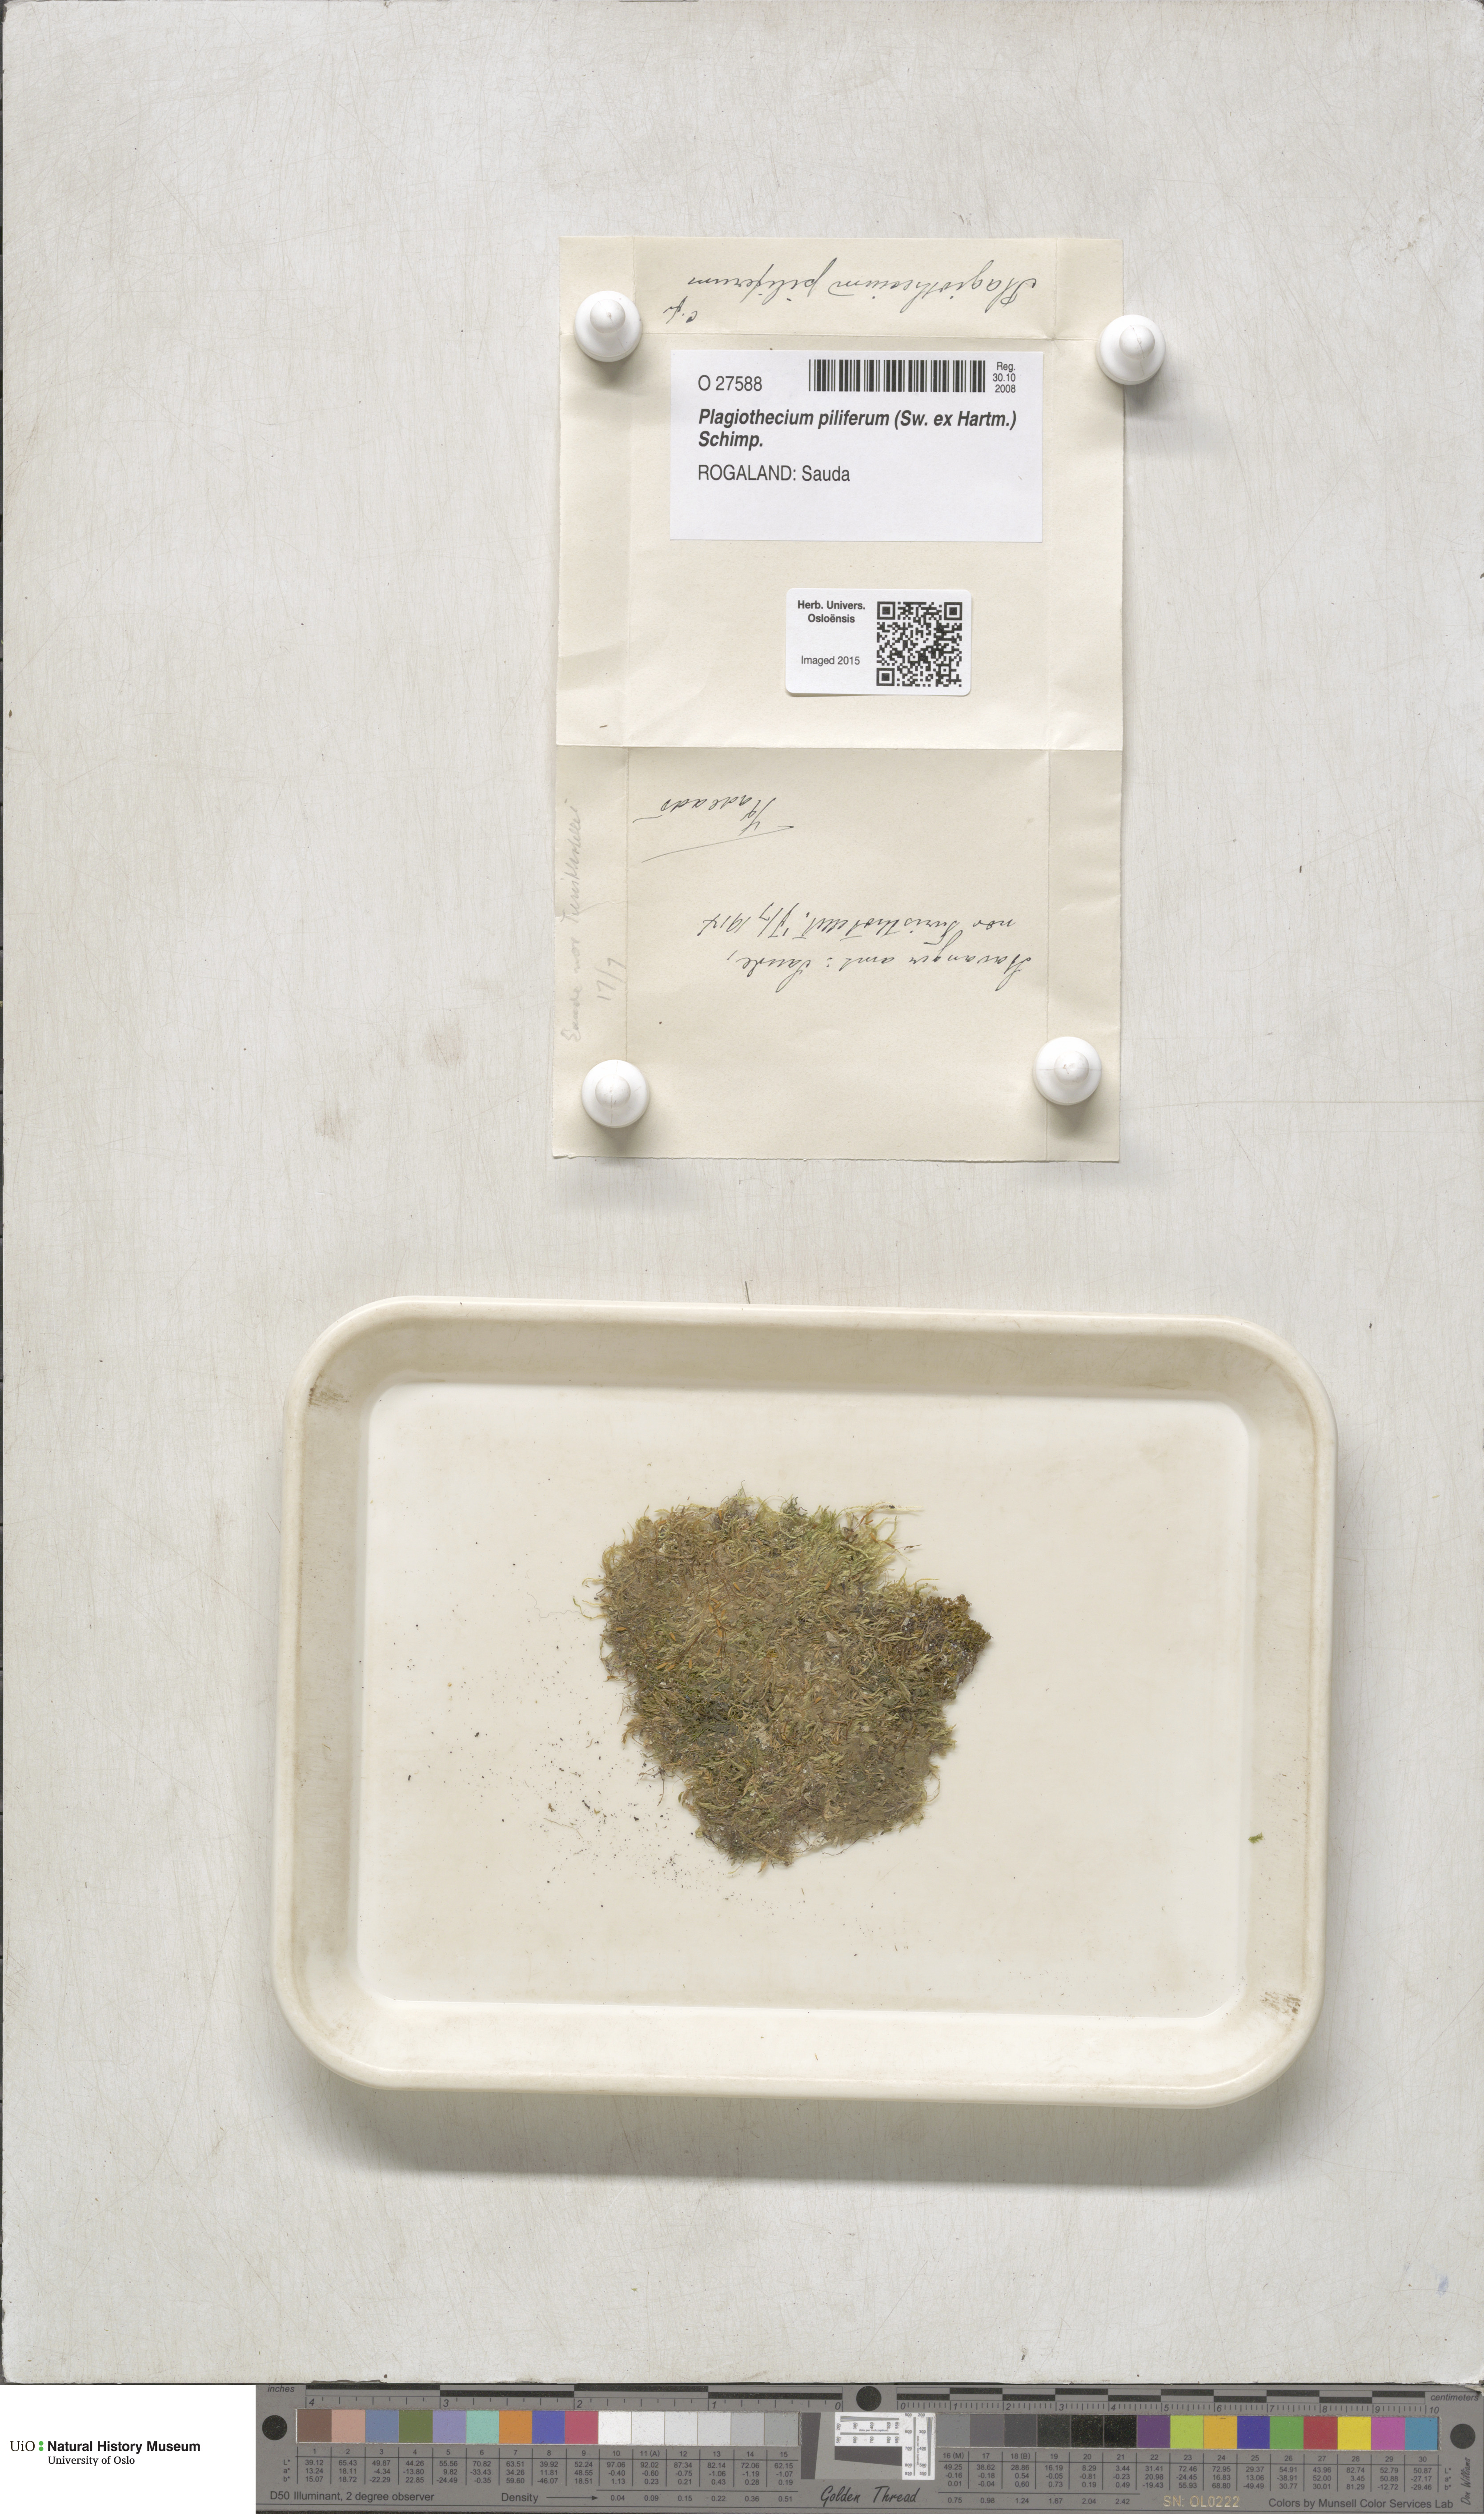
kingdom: Plantae
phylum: Bryophyta
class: Bryopsida
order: Hypnales
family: Plagiotheciaceae
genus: Rectithecium
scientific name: Rectithecium piliferum
